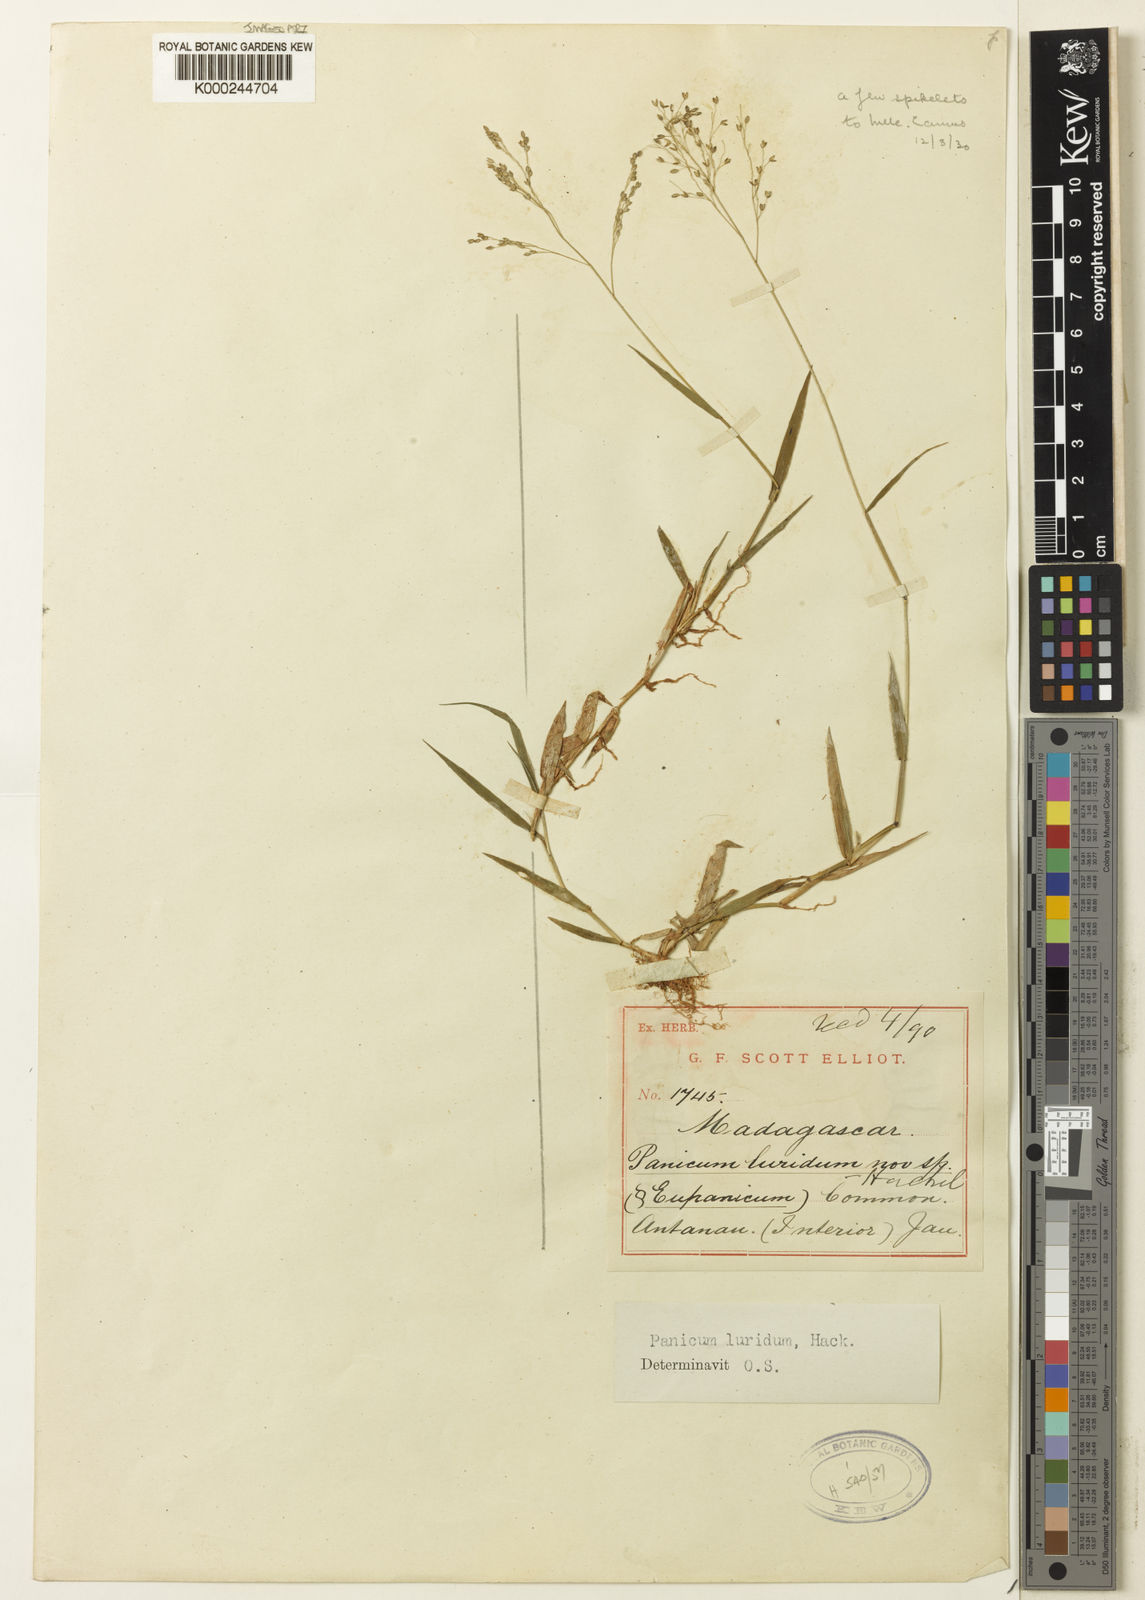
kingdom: Plantae
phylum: Tracheophyta
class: Liliopsida
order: Poales
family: Poaceae
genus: Panicum
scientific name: Panicum
